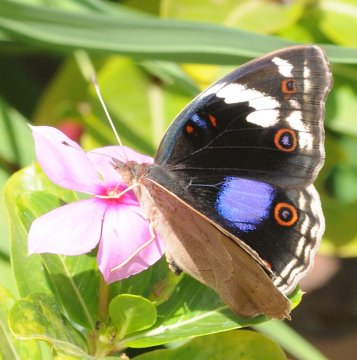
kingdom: Animalia
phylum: Arthropoda
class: Insecta
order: Lepidoptera
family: Nymphalidae
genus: Junonia
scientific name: Junonia oenone
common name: Dark blue pansy
